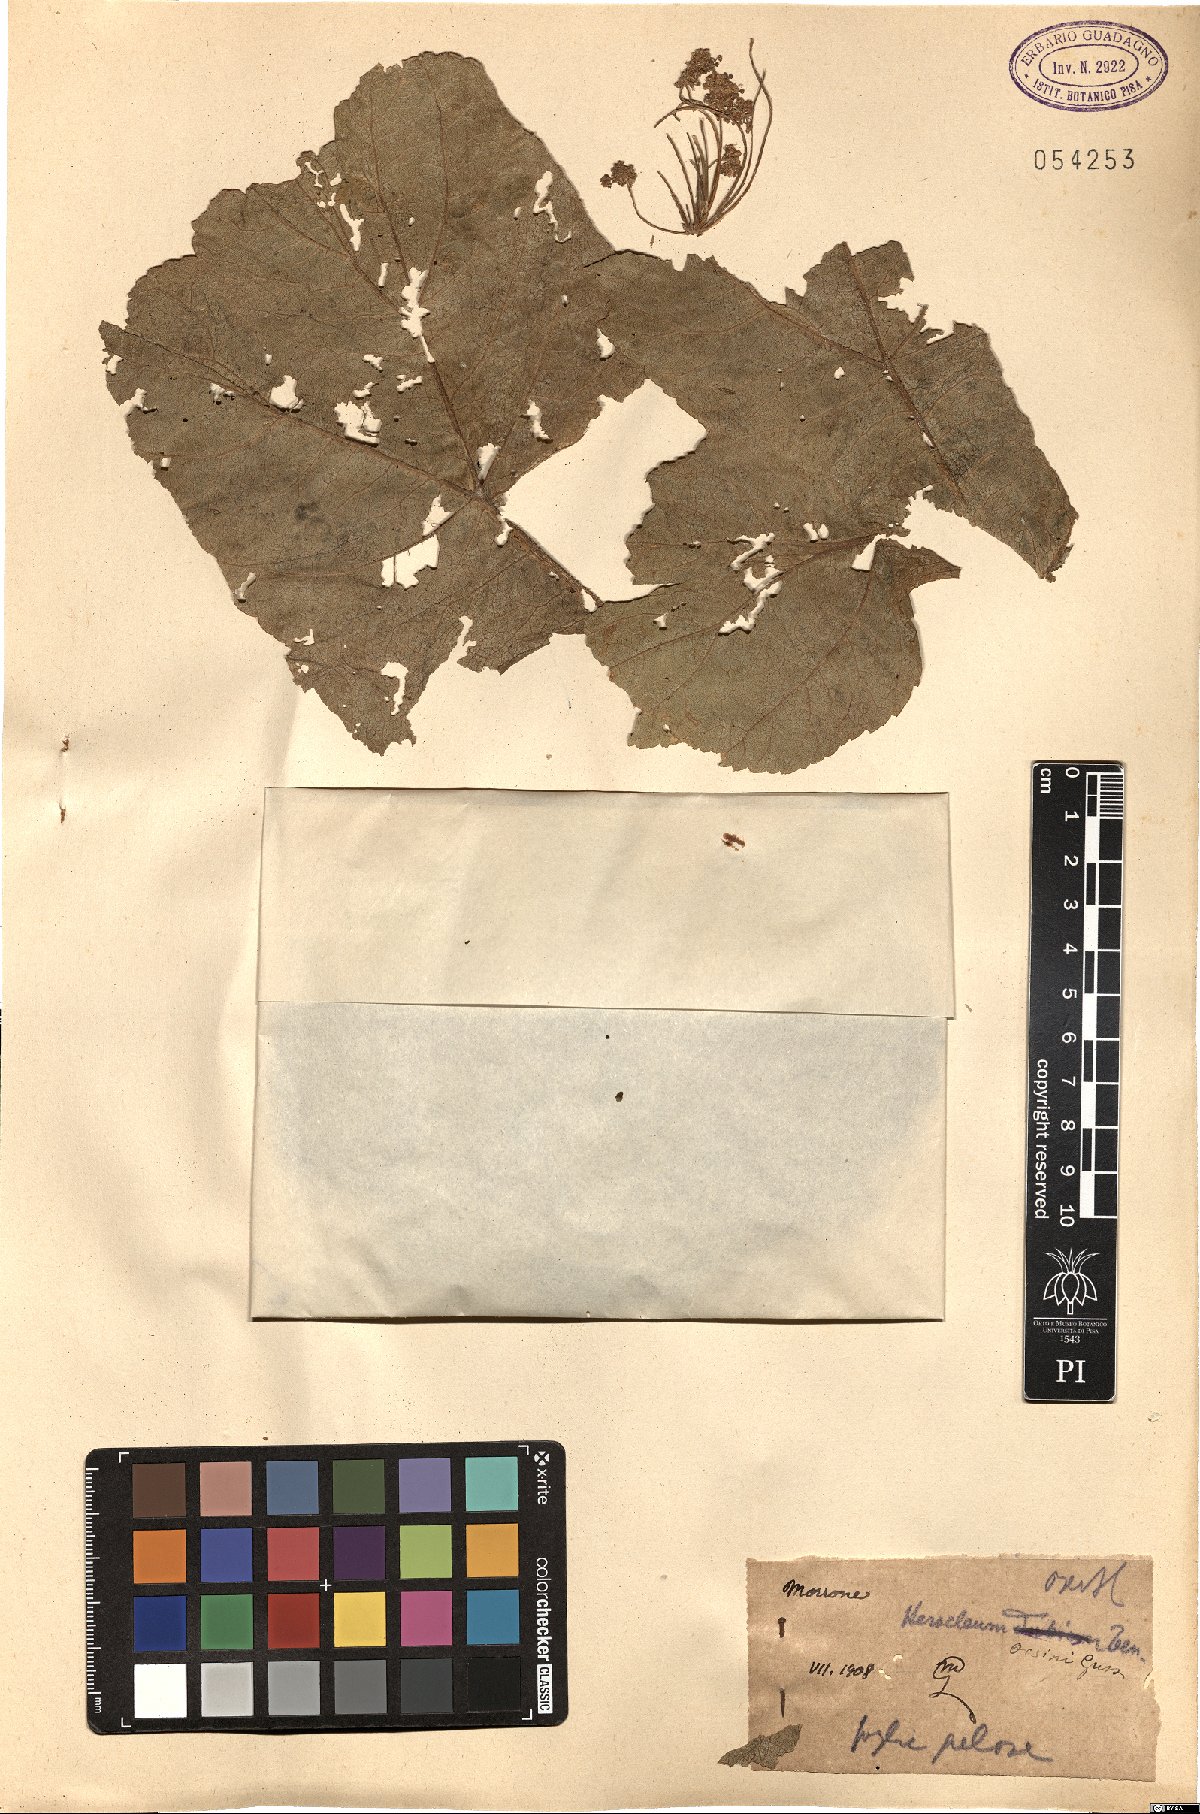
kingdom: Plantae
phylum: Tracheophyta
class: Magnoliopsida
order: Apiales
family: Apiaceae
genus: Heracleum
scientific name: Heracleum sphondylium
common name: Hogweed
